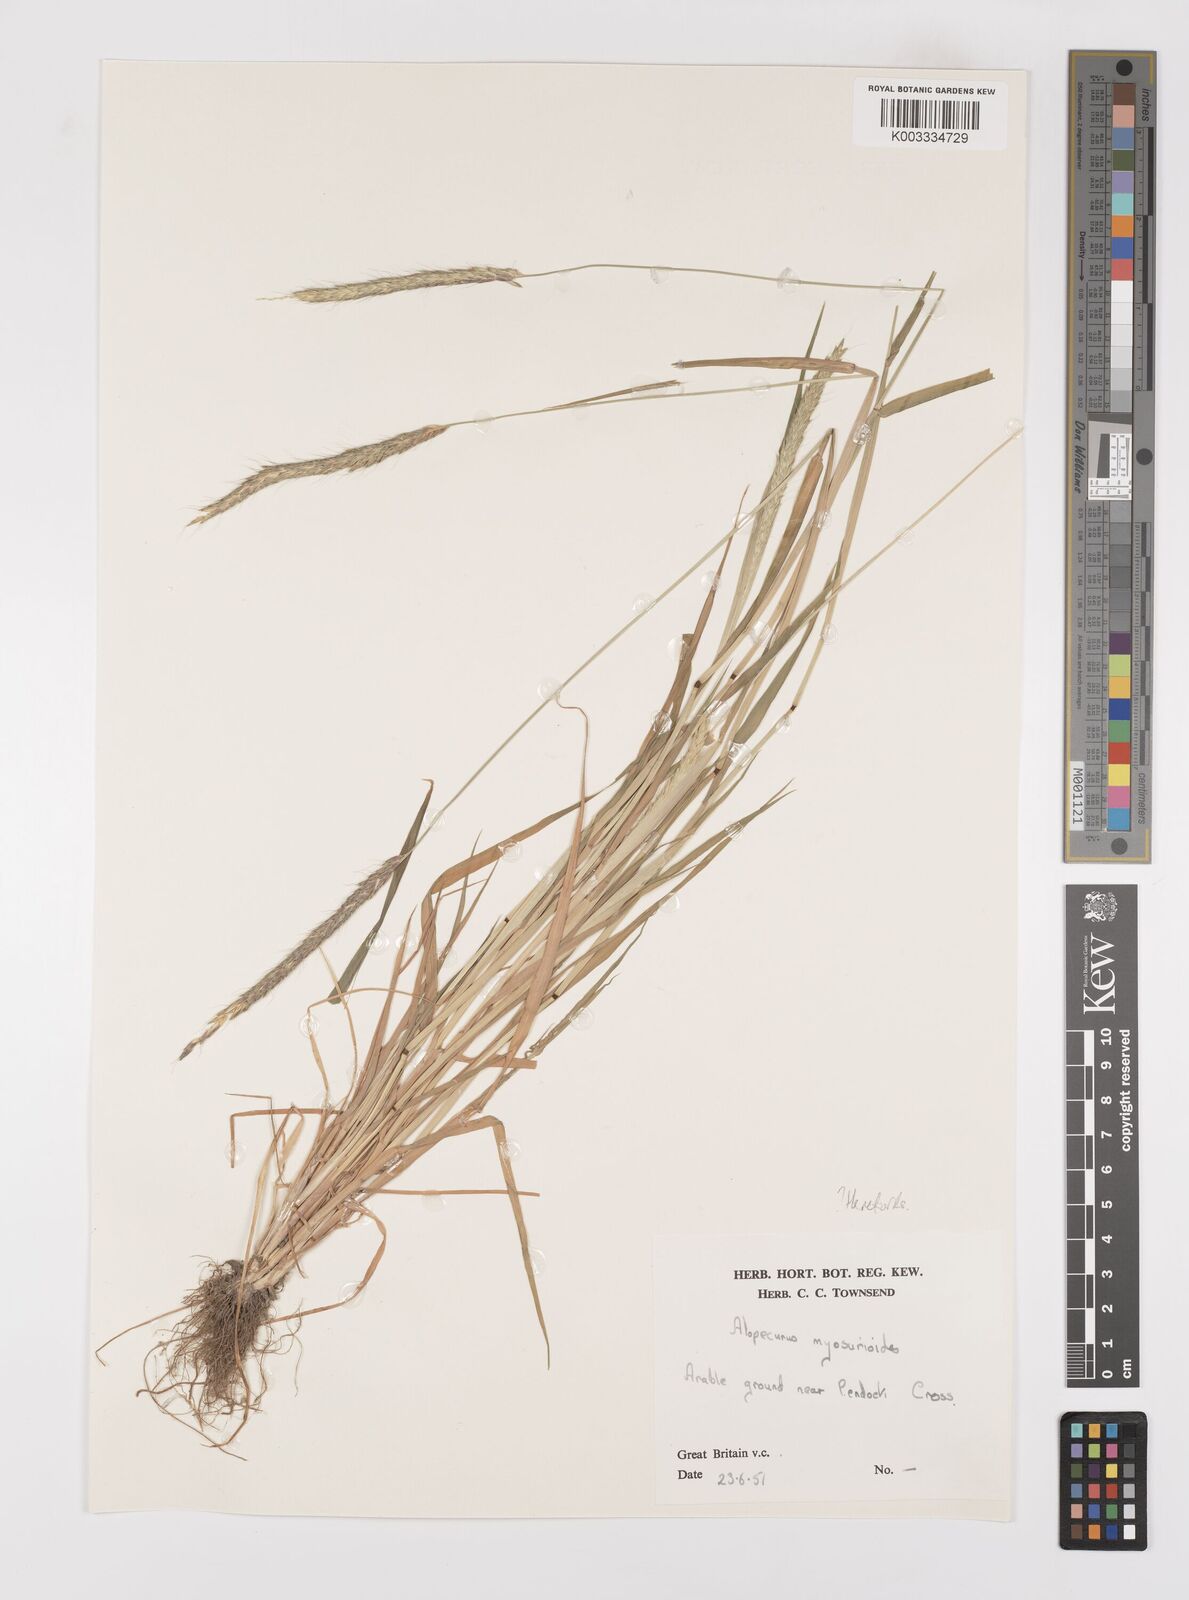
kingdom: Plantae
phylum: Tracheophyta
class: Liliopsida
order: Poales
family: Poaceae
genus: Alopecurus
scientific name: Alopecurus myosuroides
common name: Black-grass
